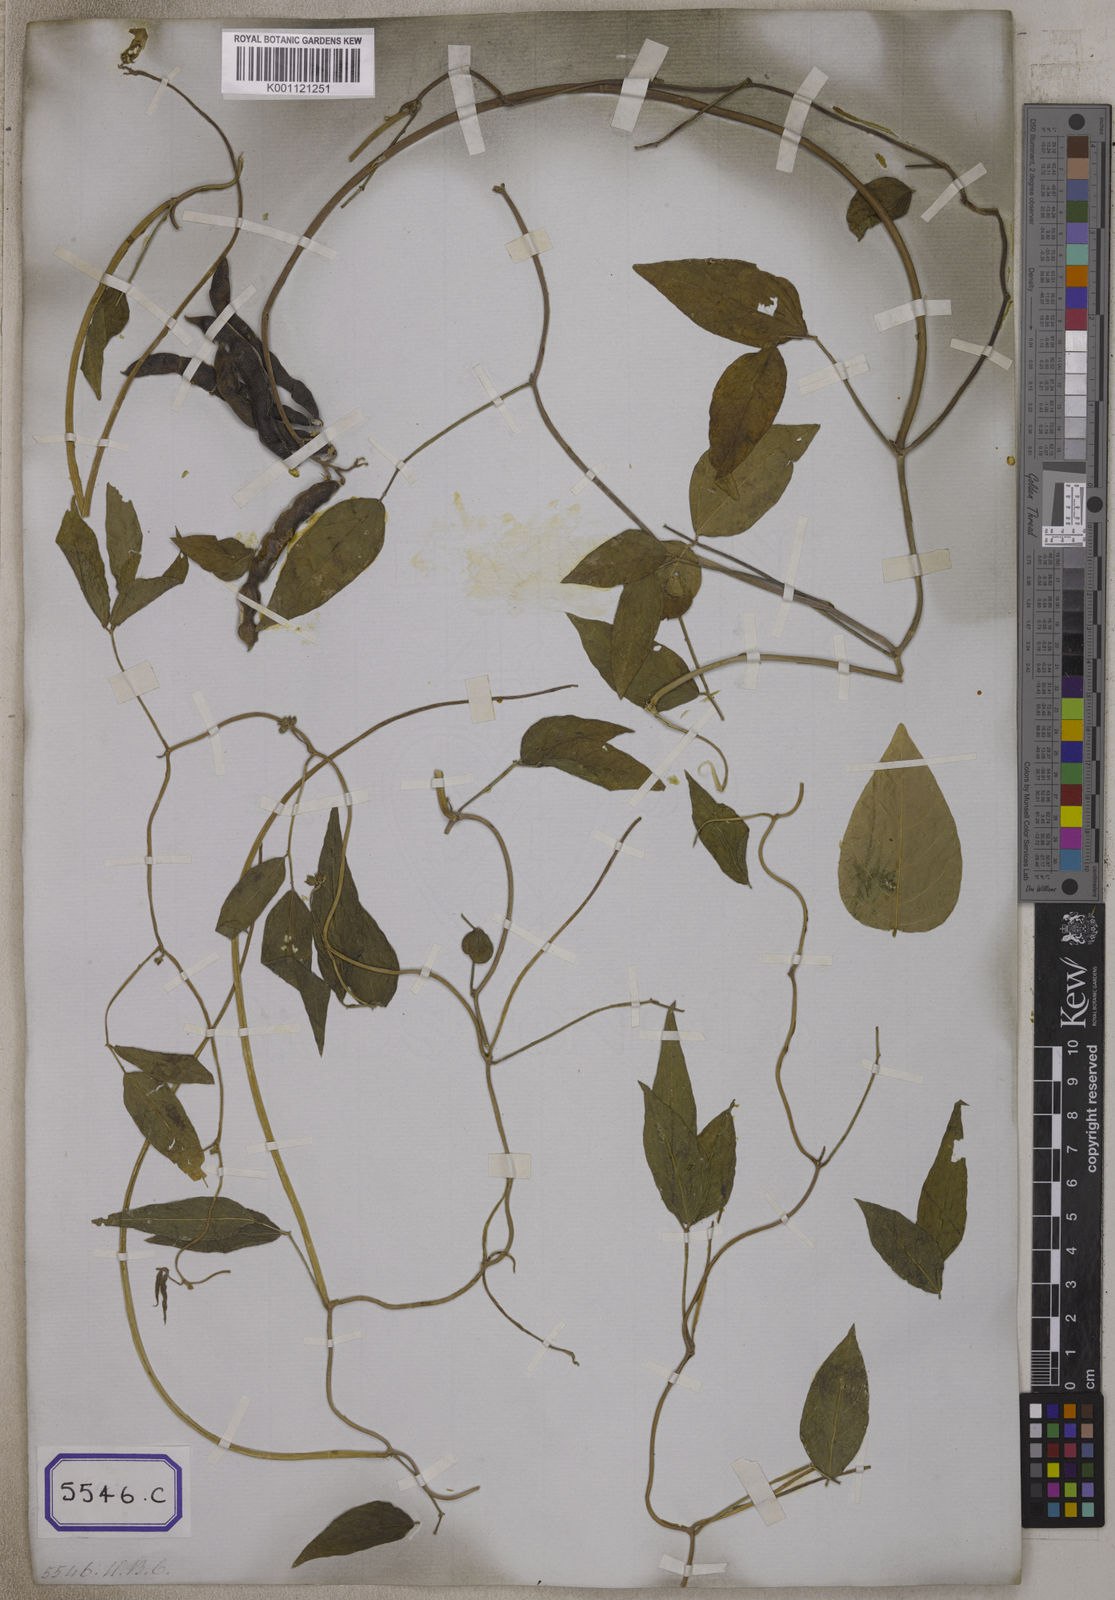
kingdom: Plantae
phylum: Tracheophyta
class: Magnoliopsida
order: Fabales
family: Fabaceae
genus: Vigna
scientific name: Vigna luteola
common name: Hairypod cowpea
